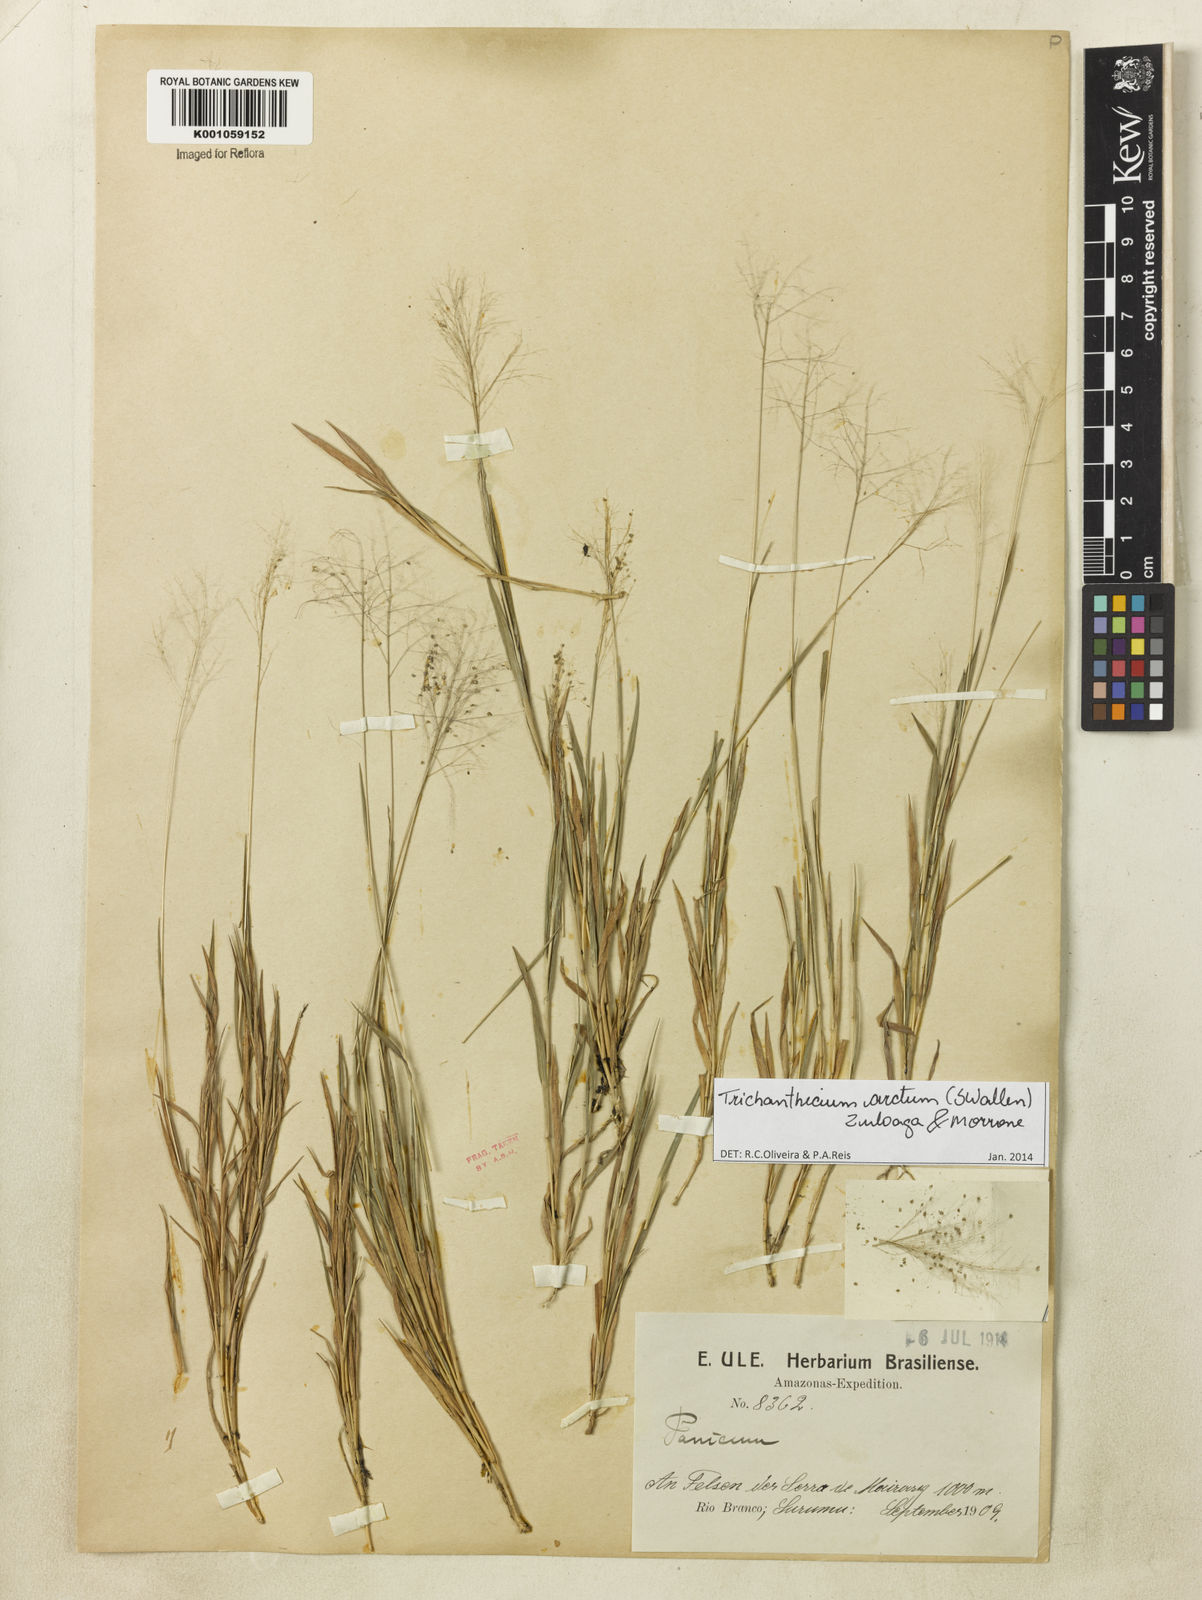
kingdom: Plantae
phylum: Tracheophyta
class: Liliopsida
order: Poales
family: Poaceae
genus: Trichanthecium
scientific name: Trichanthecium arctum
